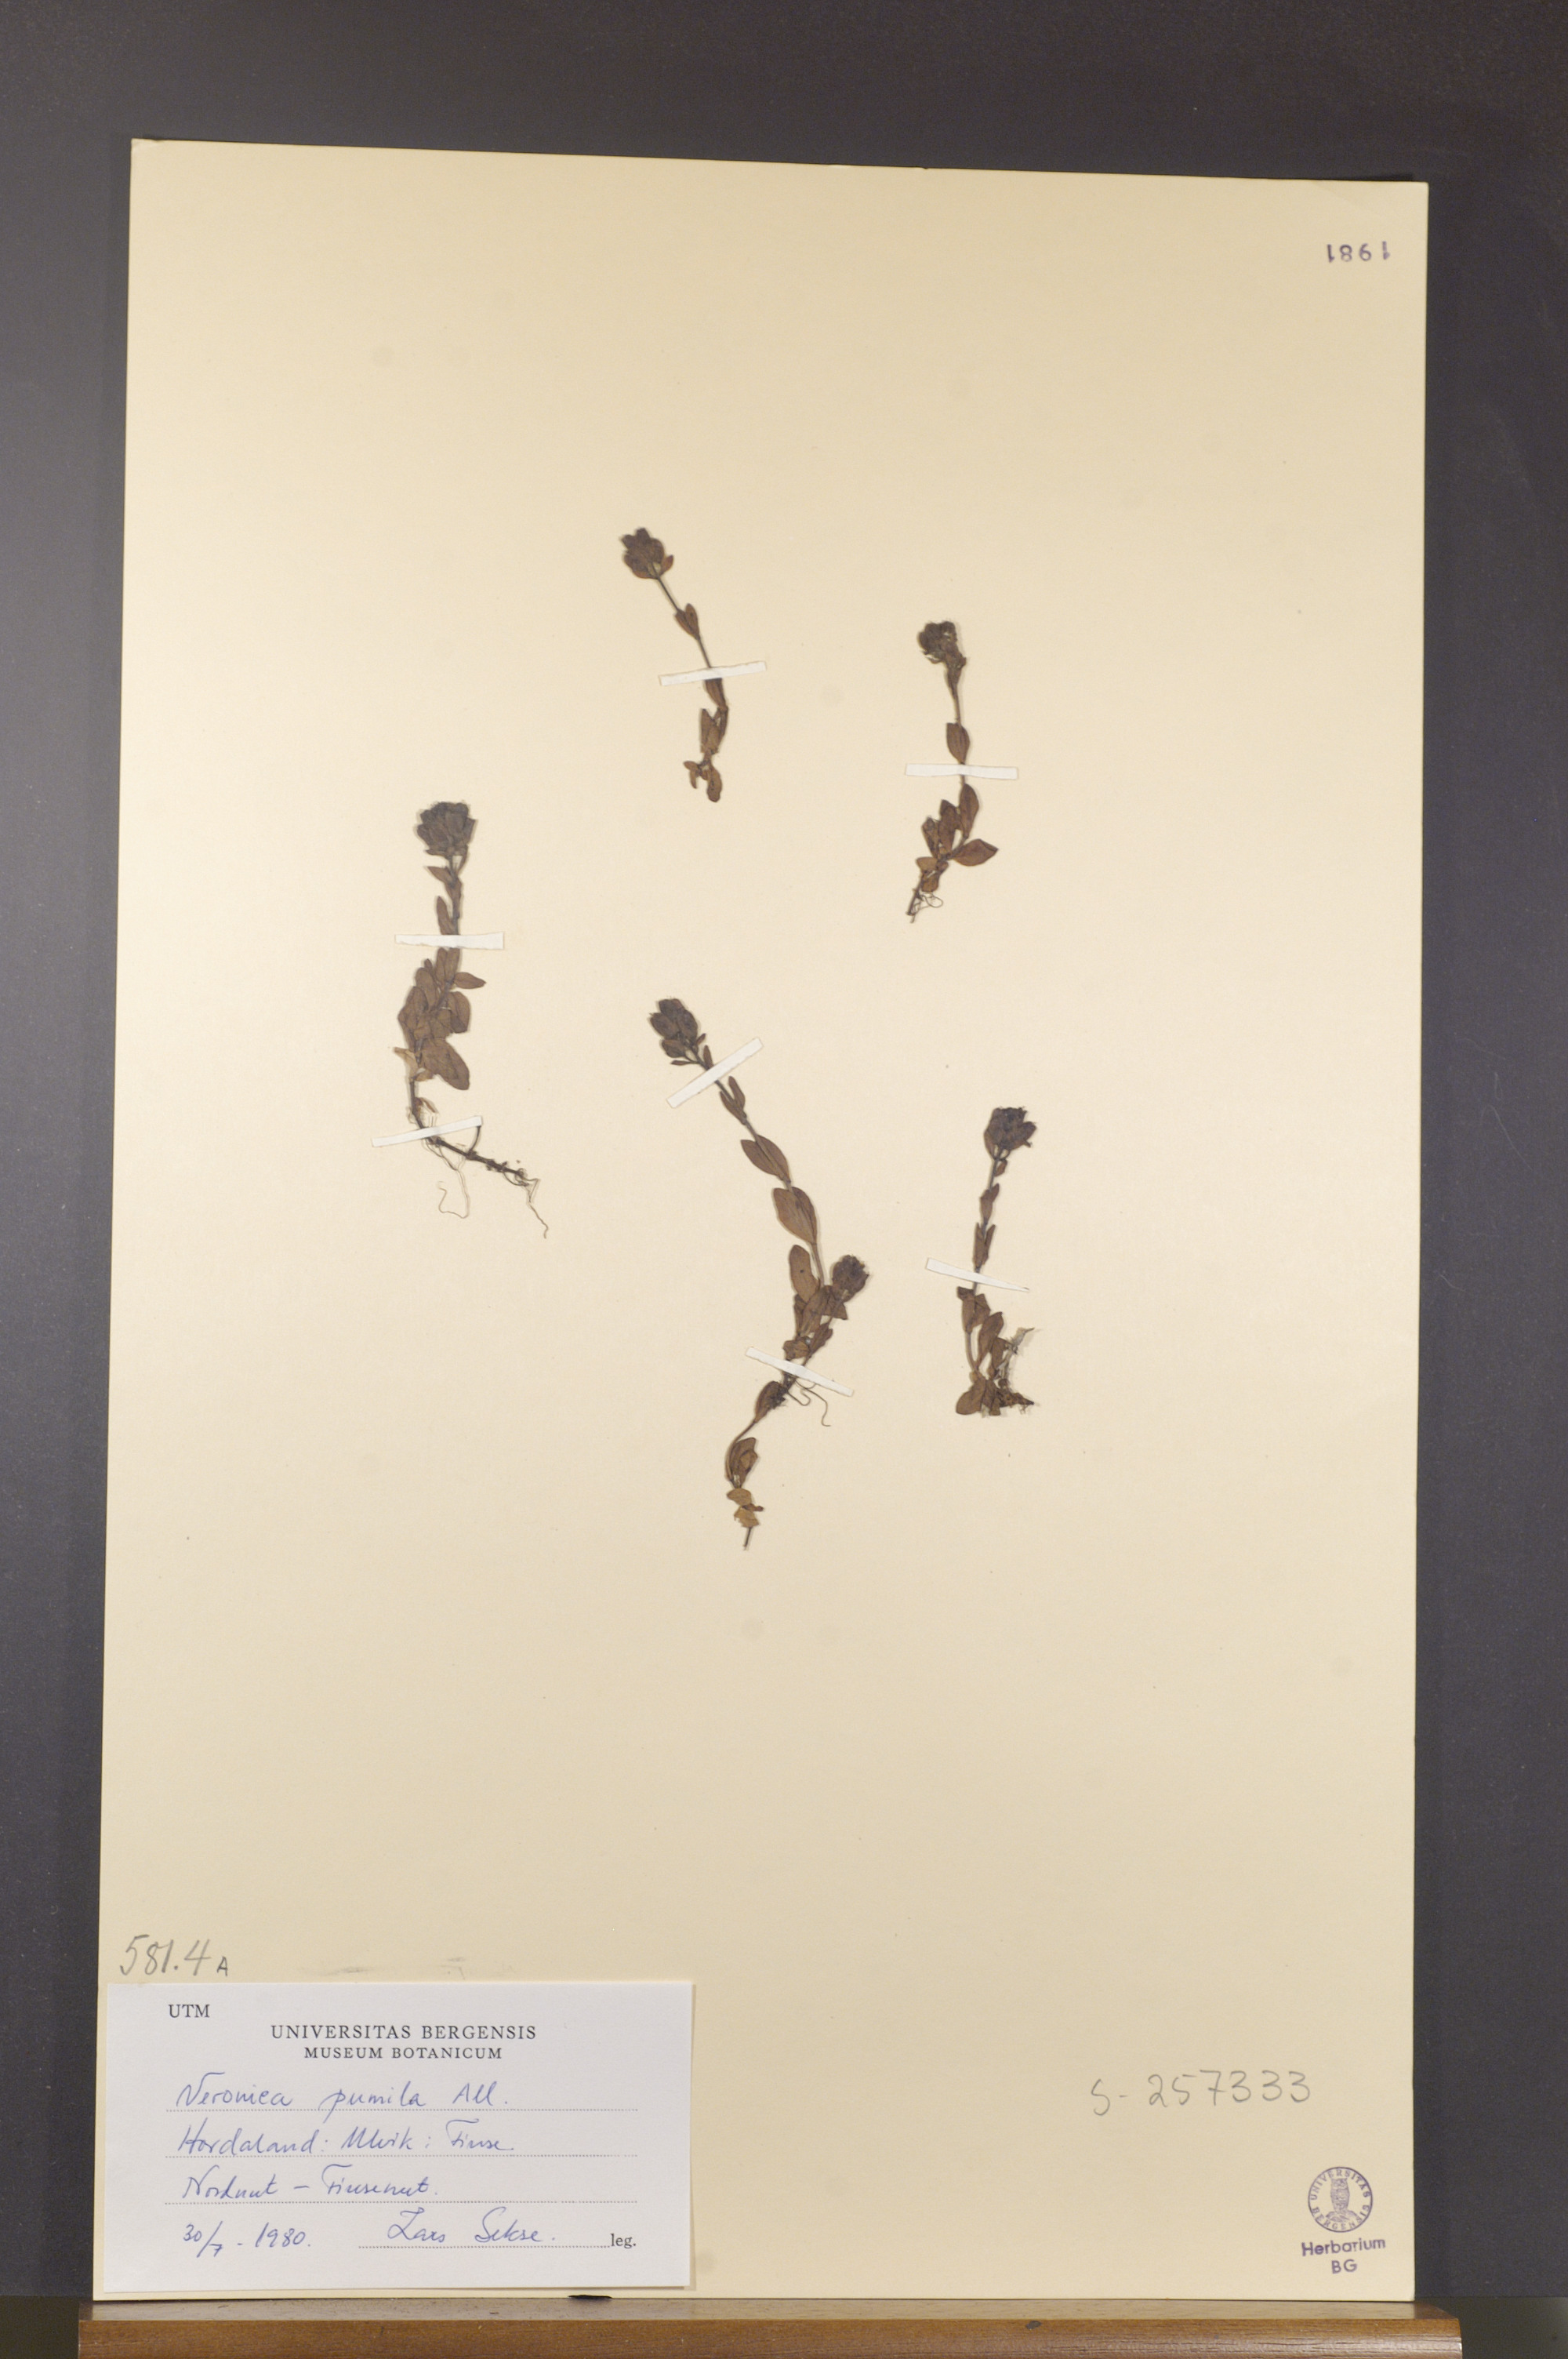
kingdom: Plantae
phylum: Tracheophyta
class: Magnoliopsida
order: Lamiales
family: Plantaginaceae
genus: Veronica
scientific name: Veronica alpina
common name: Alpine speedwell
